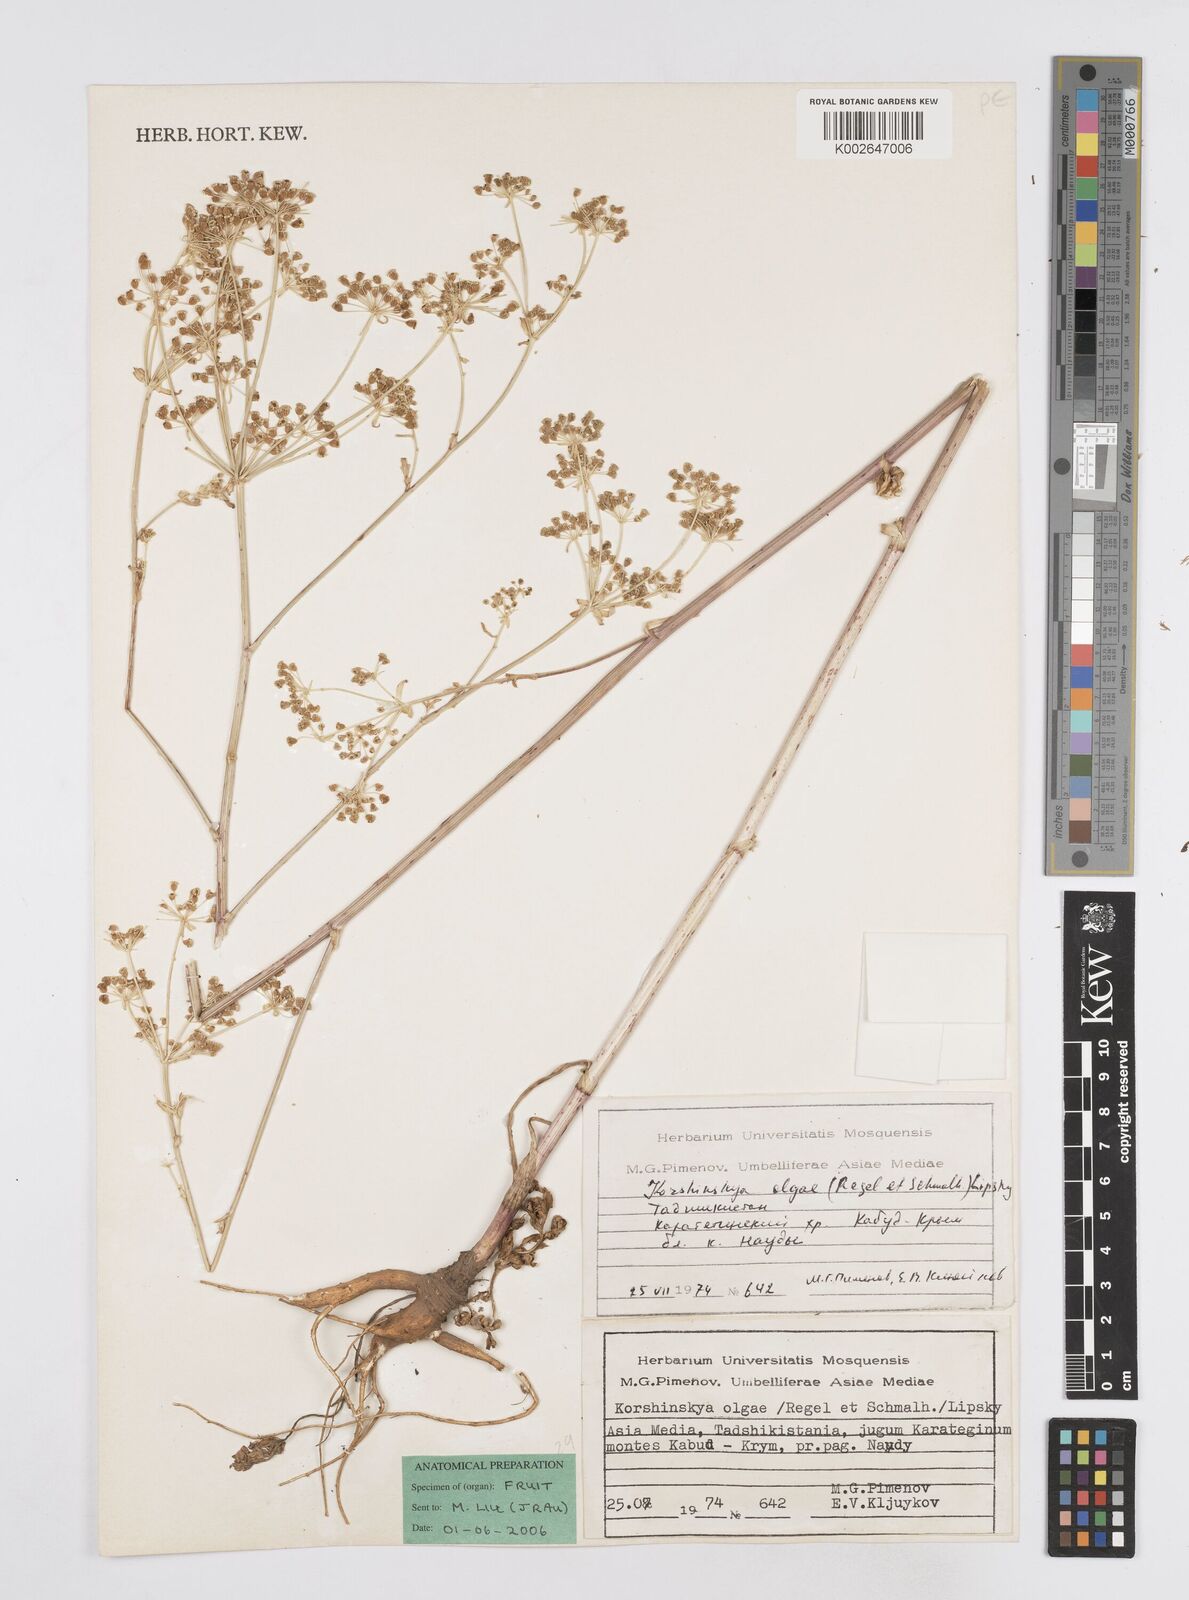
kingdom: Plantae
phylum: Tracheophyta
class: Magnoliopsida
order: Apiales
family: Apiaceae
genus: Korshinskia
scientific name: Korshinskia olgae
